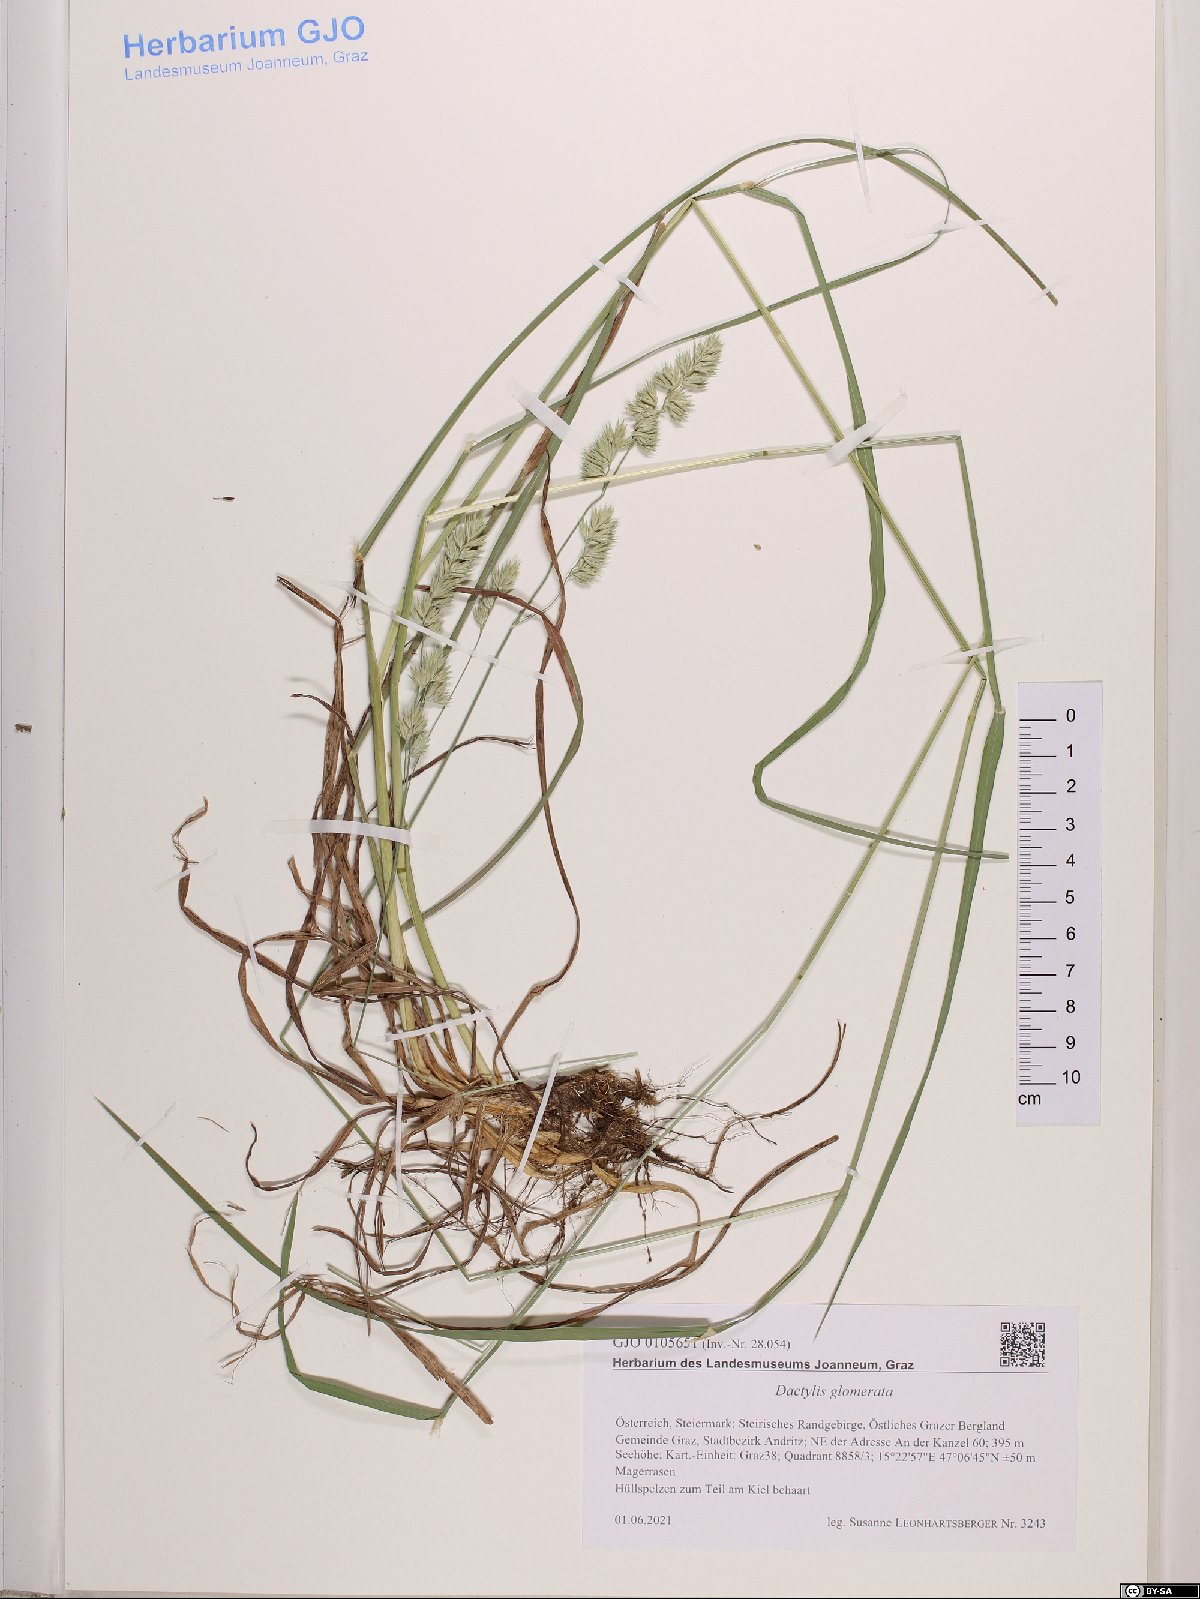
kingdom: Plantae
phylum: Tracheophyta
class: Liliopsida
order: Poales
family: Poaceae
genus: Dactylis
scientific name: Dactylis glomerata
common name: Orchardgrass
